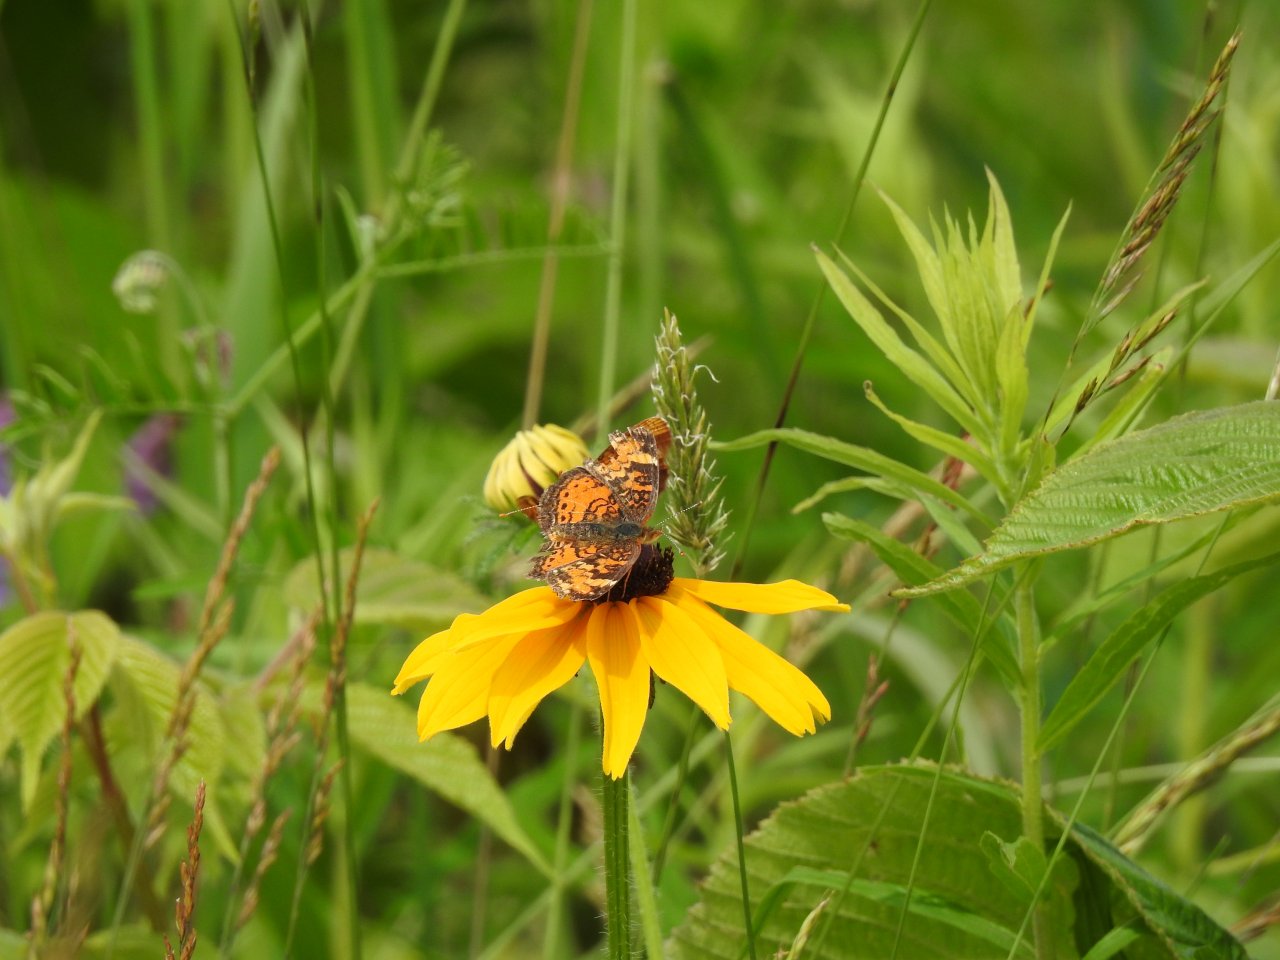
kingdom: Animalia
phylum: Arthropoda
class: Insecta
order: Lepidoptera
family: Nymphalidae
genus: Phyciodes
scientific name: Phyciodes tharos
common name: Northern Crescent
